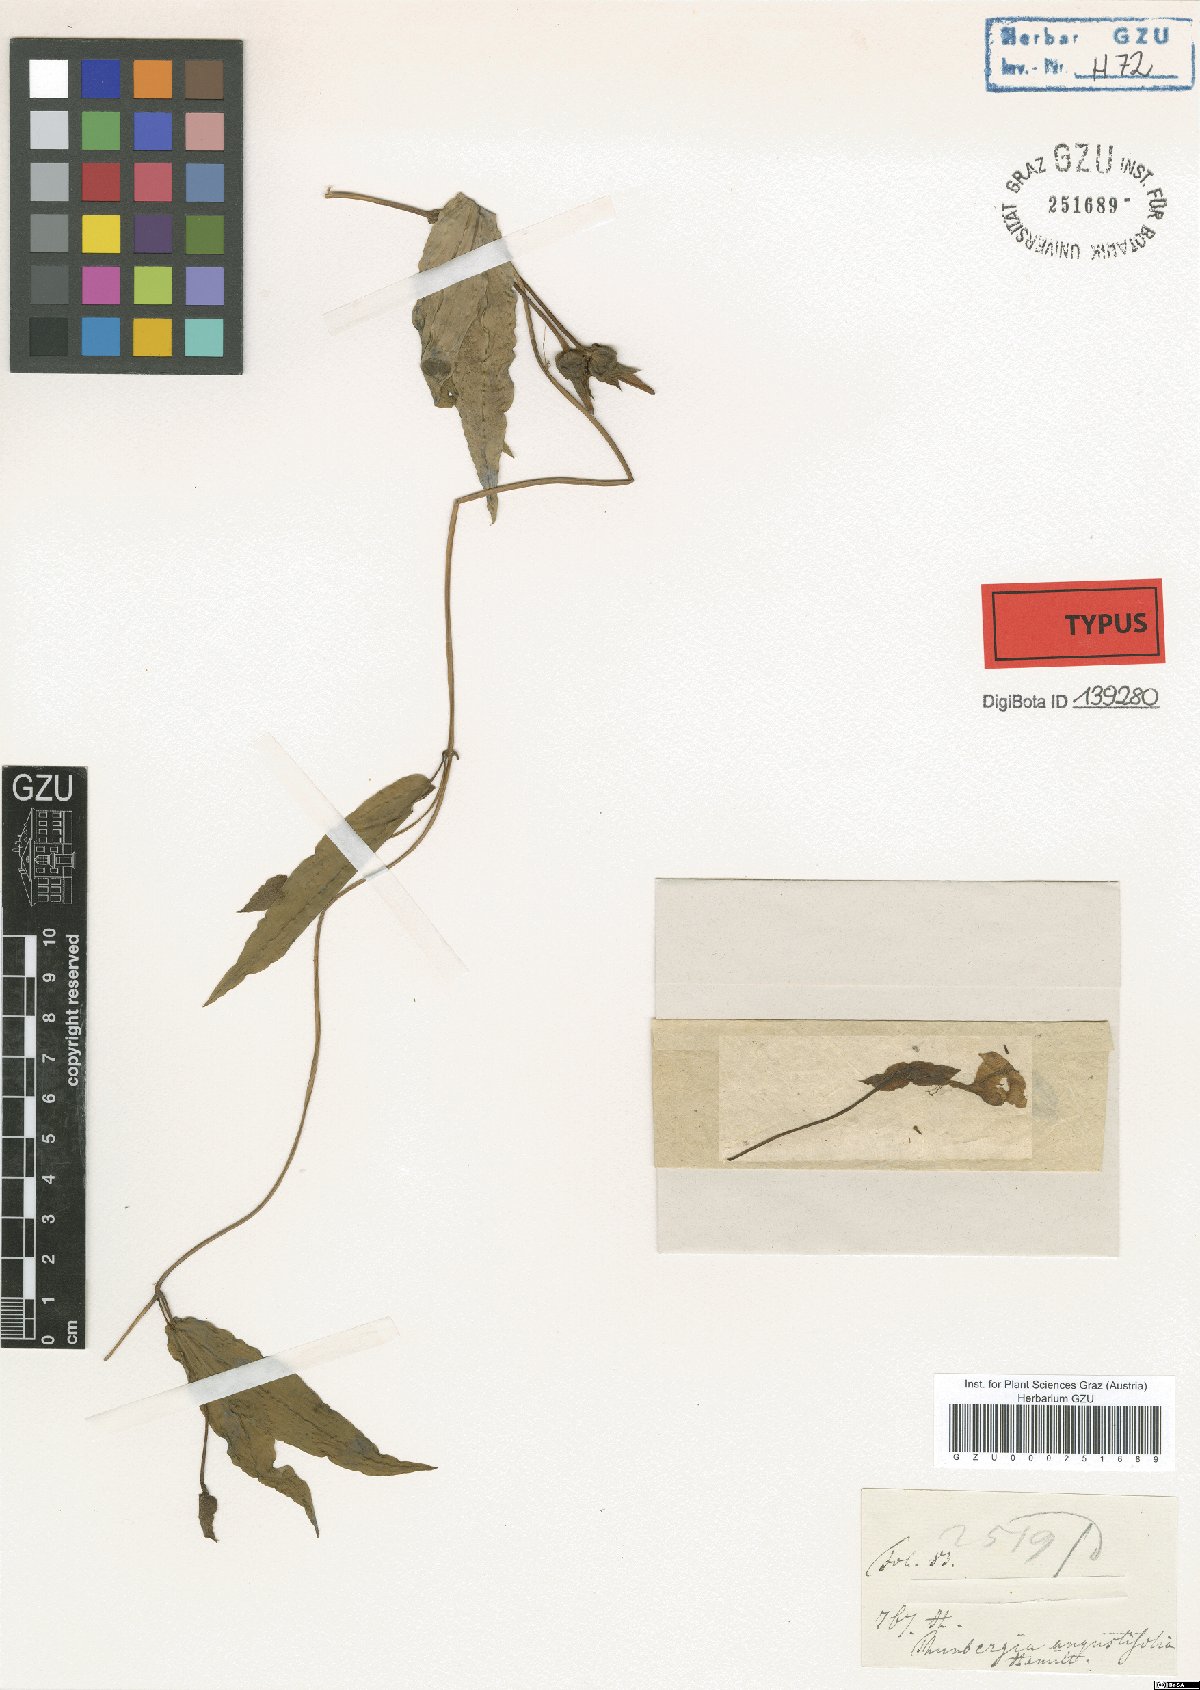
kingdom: Plantae
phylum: Tracheophyta
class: Magnoliopsida
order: Lamiales
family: Acanthaceae
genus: Thunbergia
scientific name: Thunbergia fragrans
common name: Whitelady
